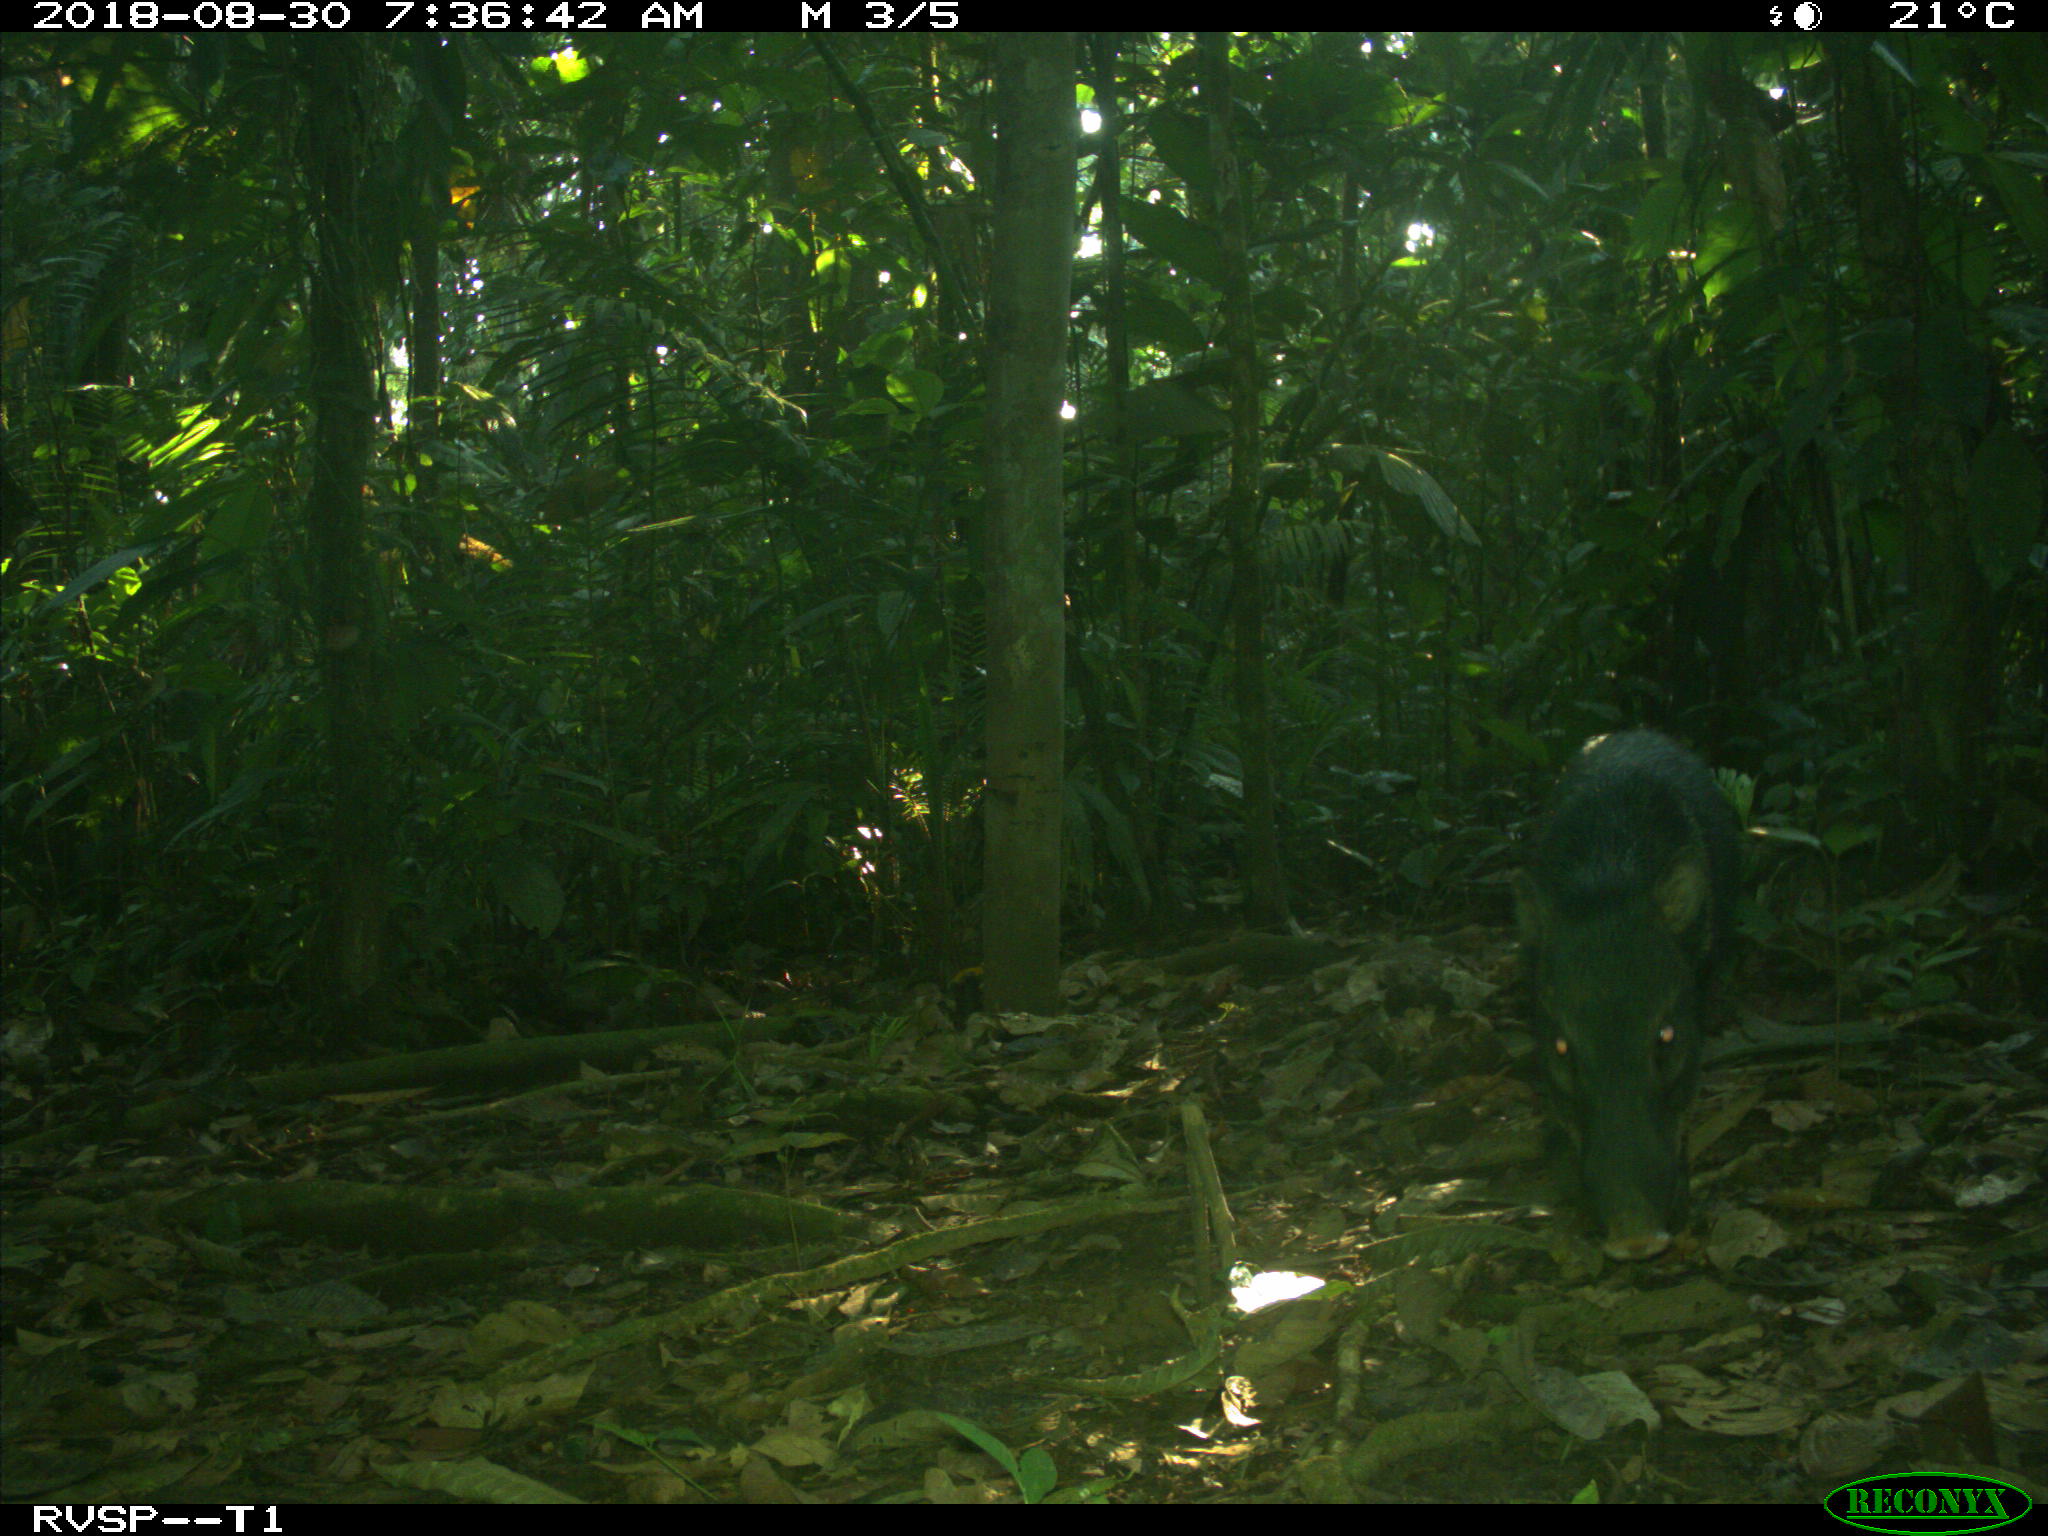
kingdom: Animalia
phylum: Chordata
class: Mammalia
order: Artiodactyla
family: Tayassuidae
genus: Pecari
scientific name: Pecari tajacu
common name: Collared peccary
